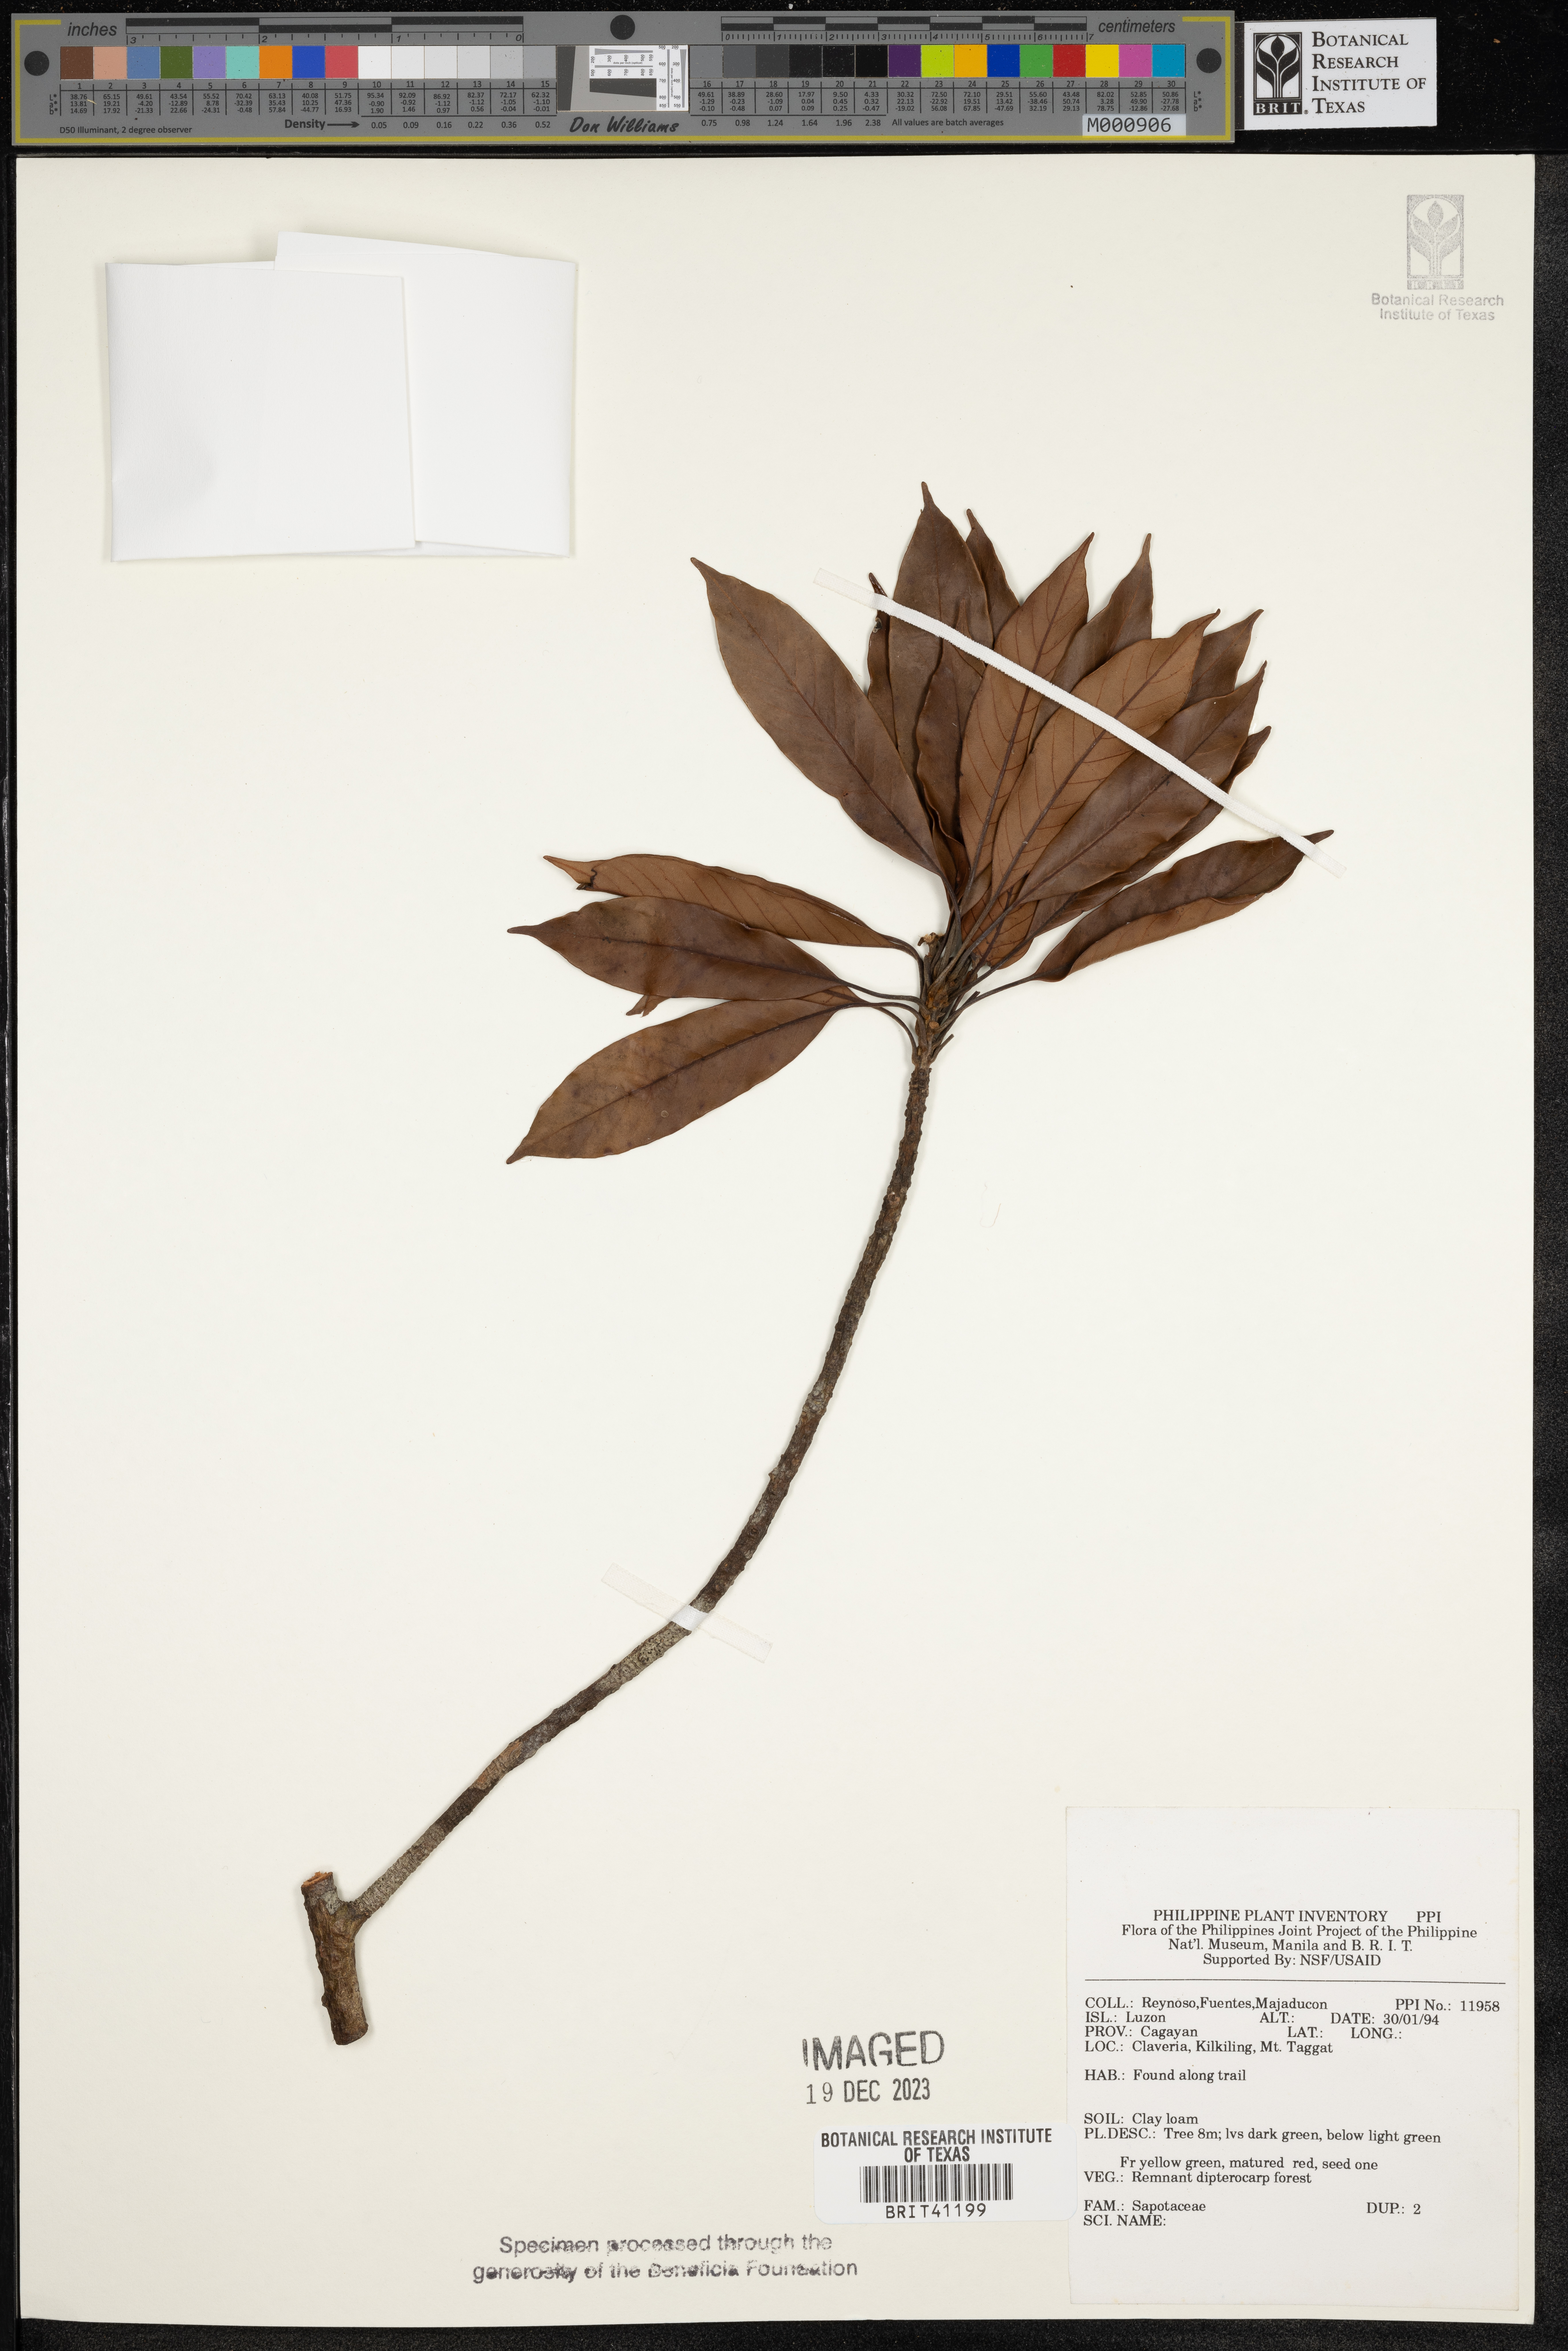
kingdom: Plantae
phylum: Tracheophyta
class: Magnoliopsida
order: Ericales
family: Sapotaceae
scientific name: Sapotaceae
